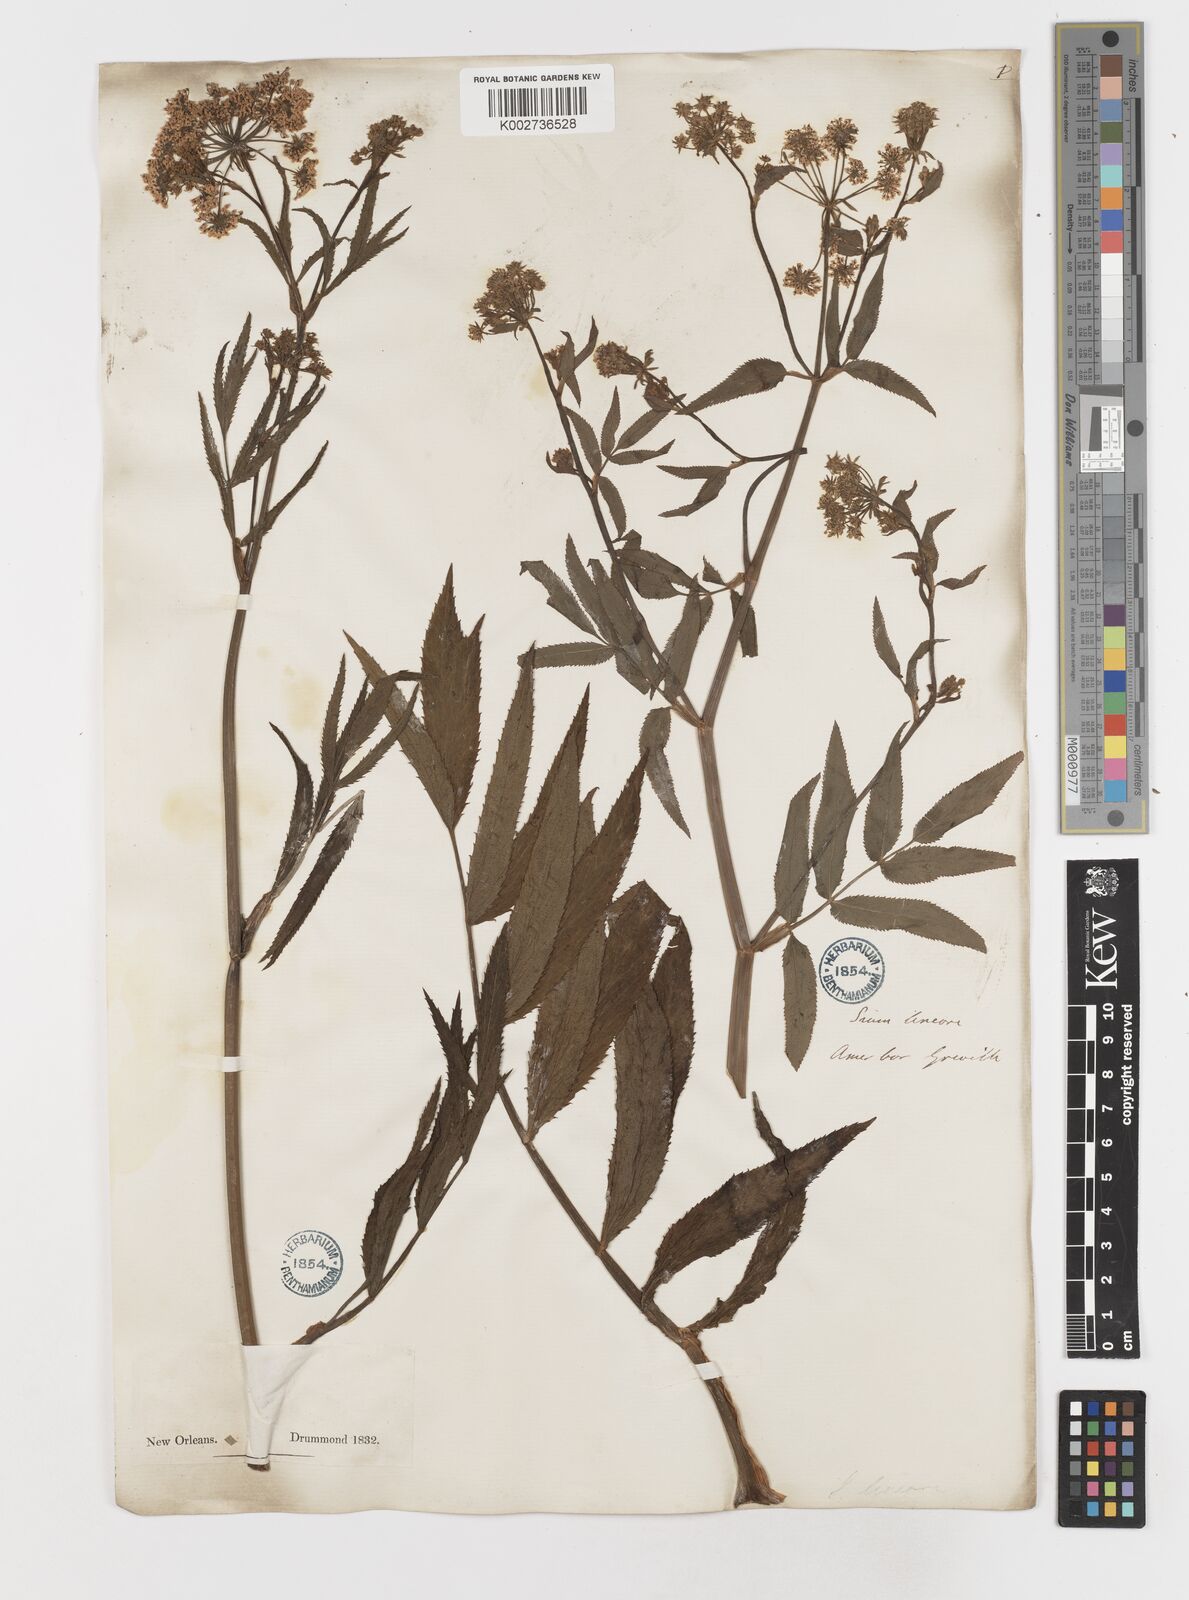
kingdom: Plantae
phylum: Tracheophyta
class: Magnoliopsida
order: Apiales
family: Apiaceae
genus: Sium
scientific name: Sium suave
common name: Hemlock water-parsnip
